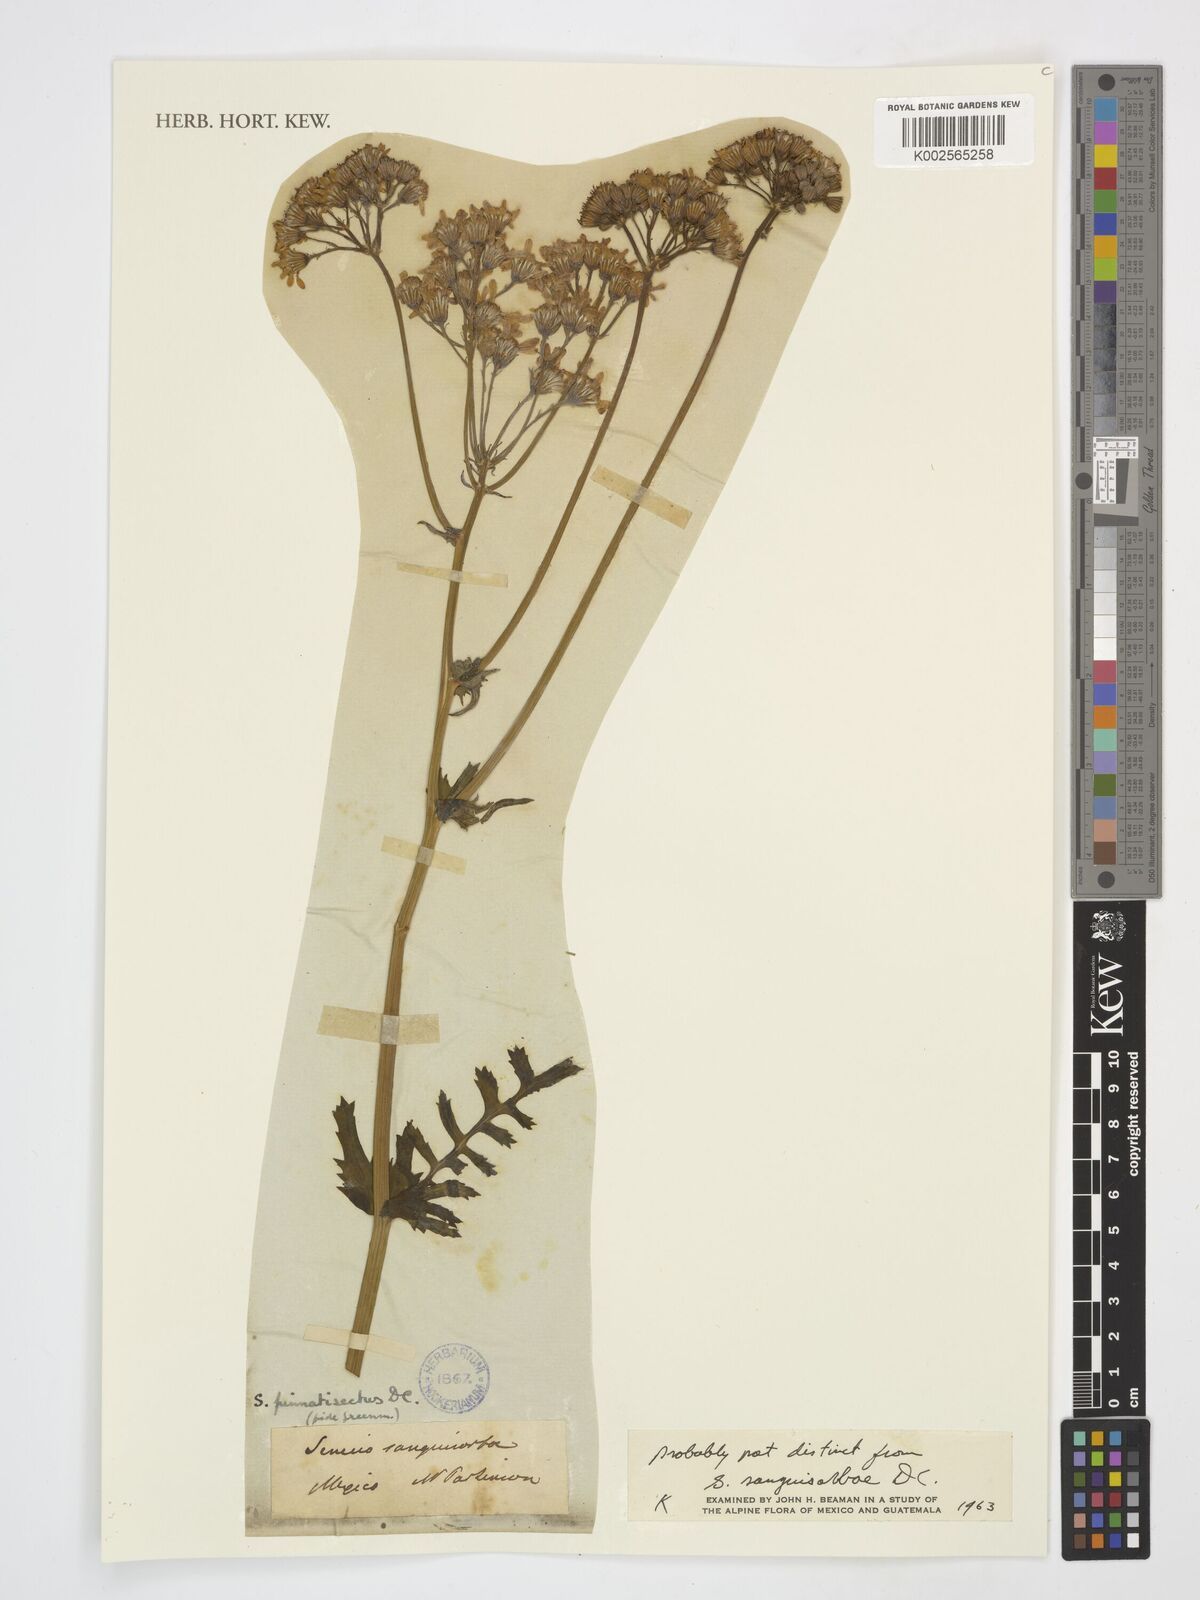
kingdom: Plantae
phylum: Tracheophyta
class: Magnoliopsida
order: Asterales
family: Asteraceae
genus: Packera
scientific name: Packera
